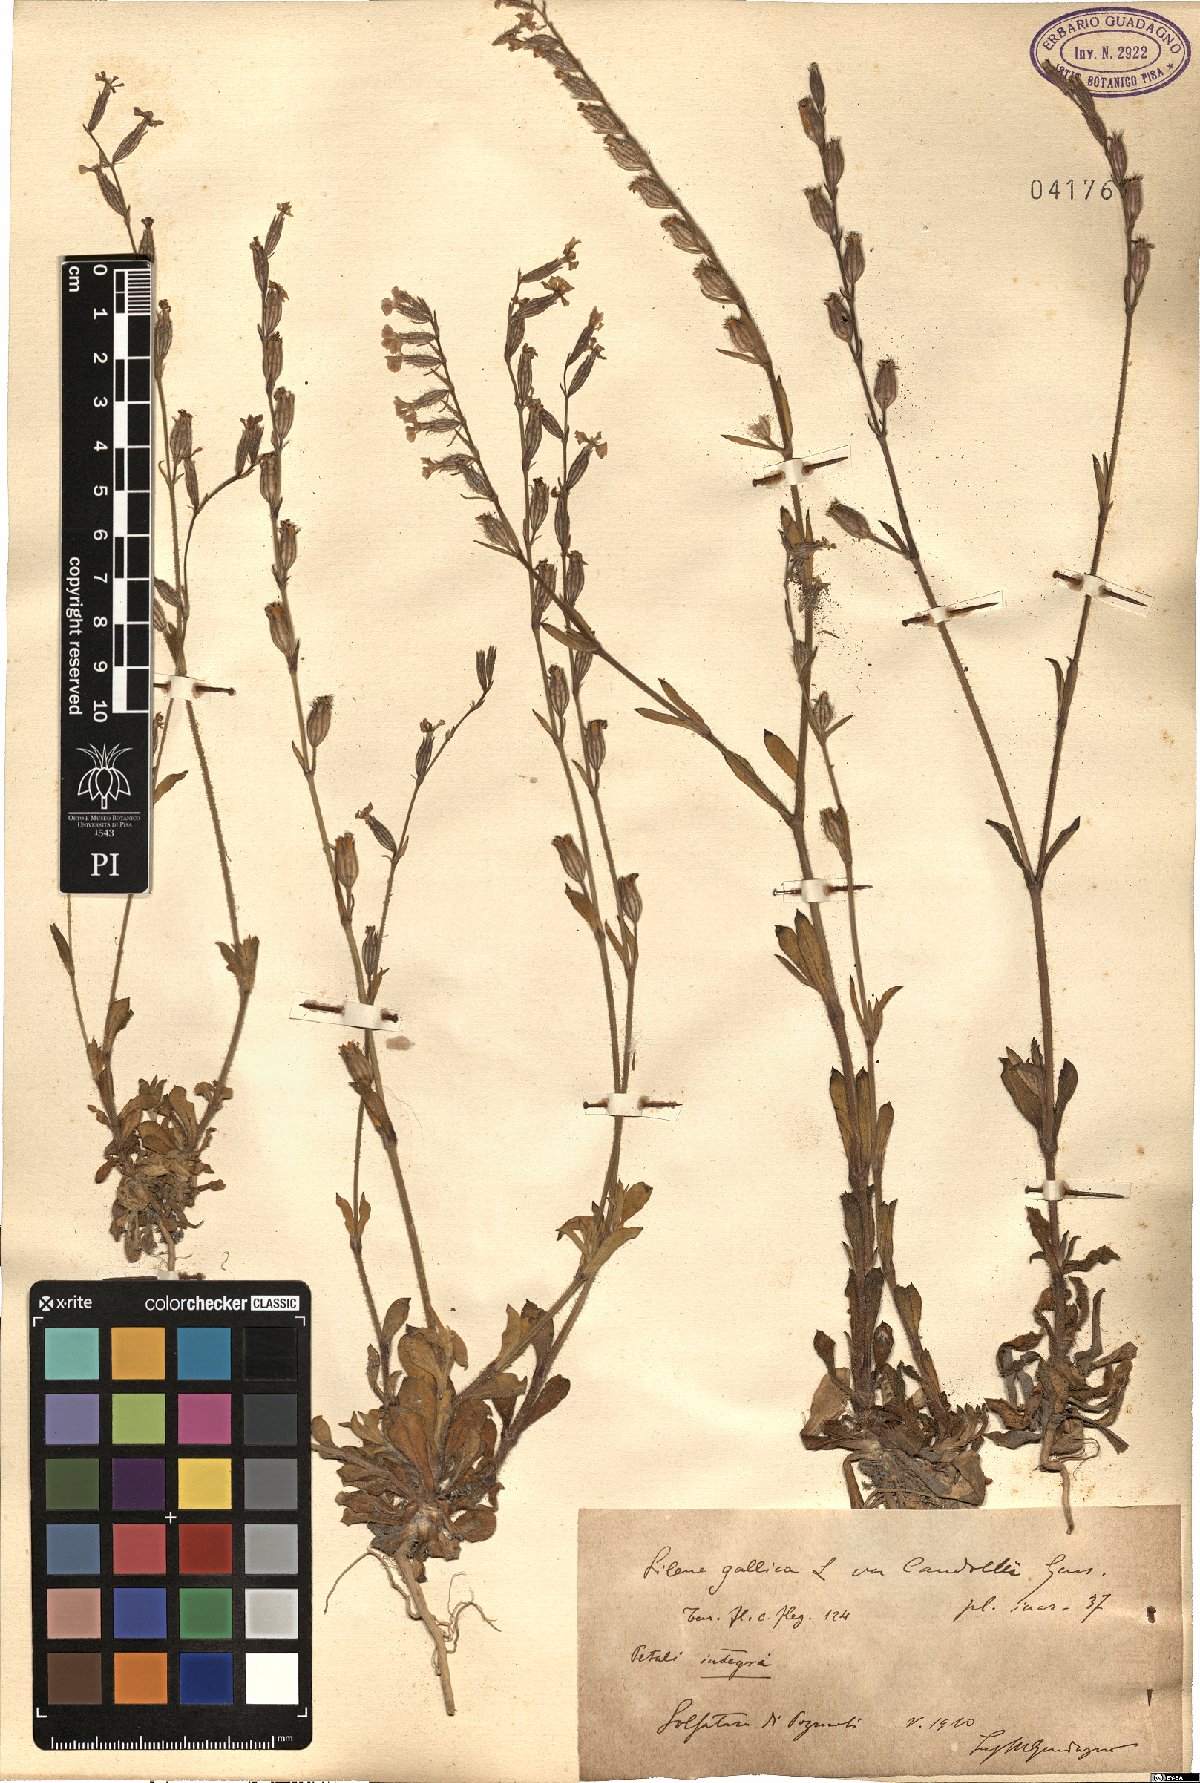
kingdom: Plantae
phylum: Tracheophyta
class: Magnoliopsida
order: Caryophyllales
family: Caryophyllaceae
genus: Silene
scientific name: Silene gallica
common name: Small-flowered catchfly
